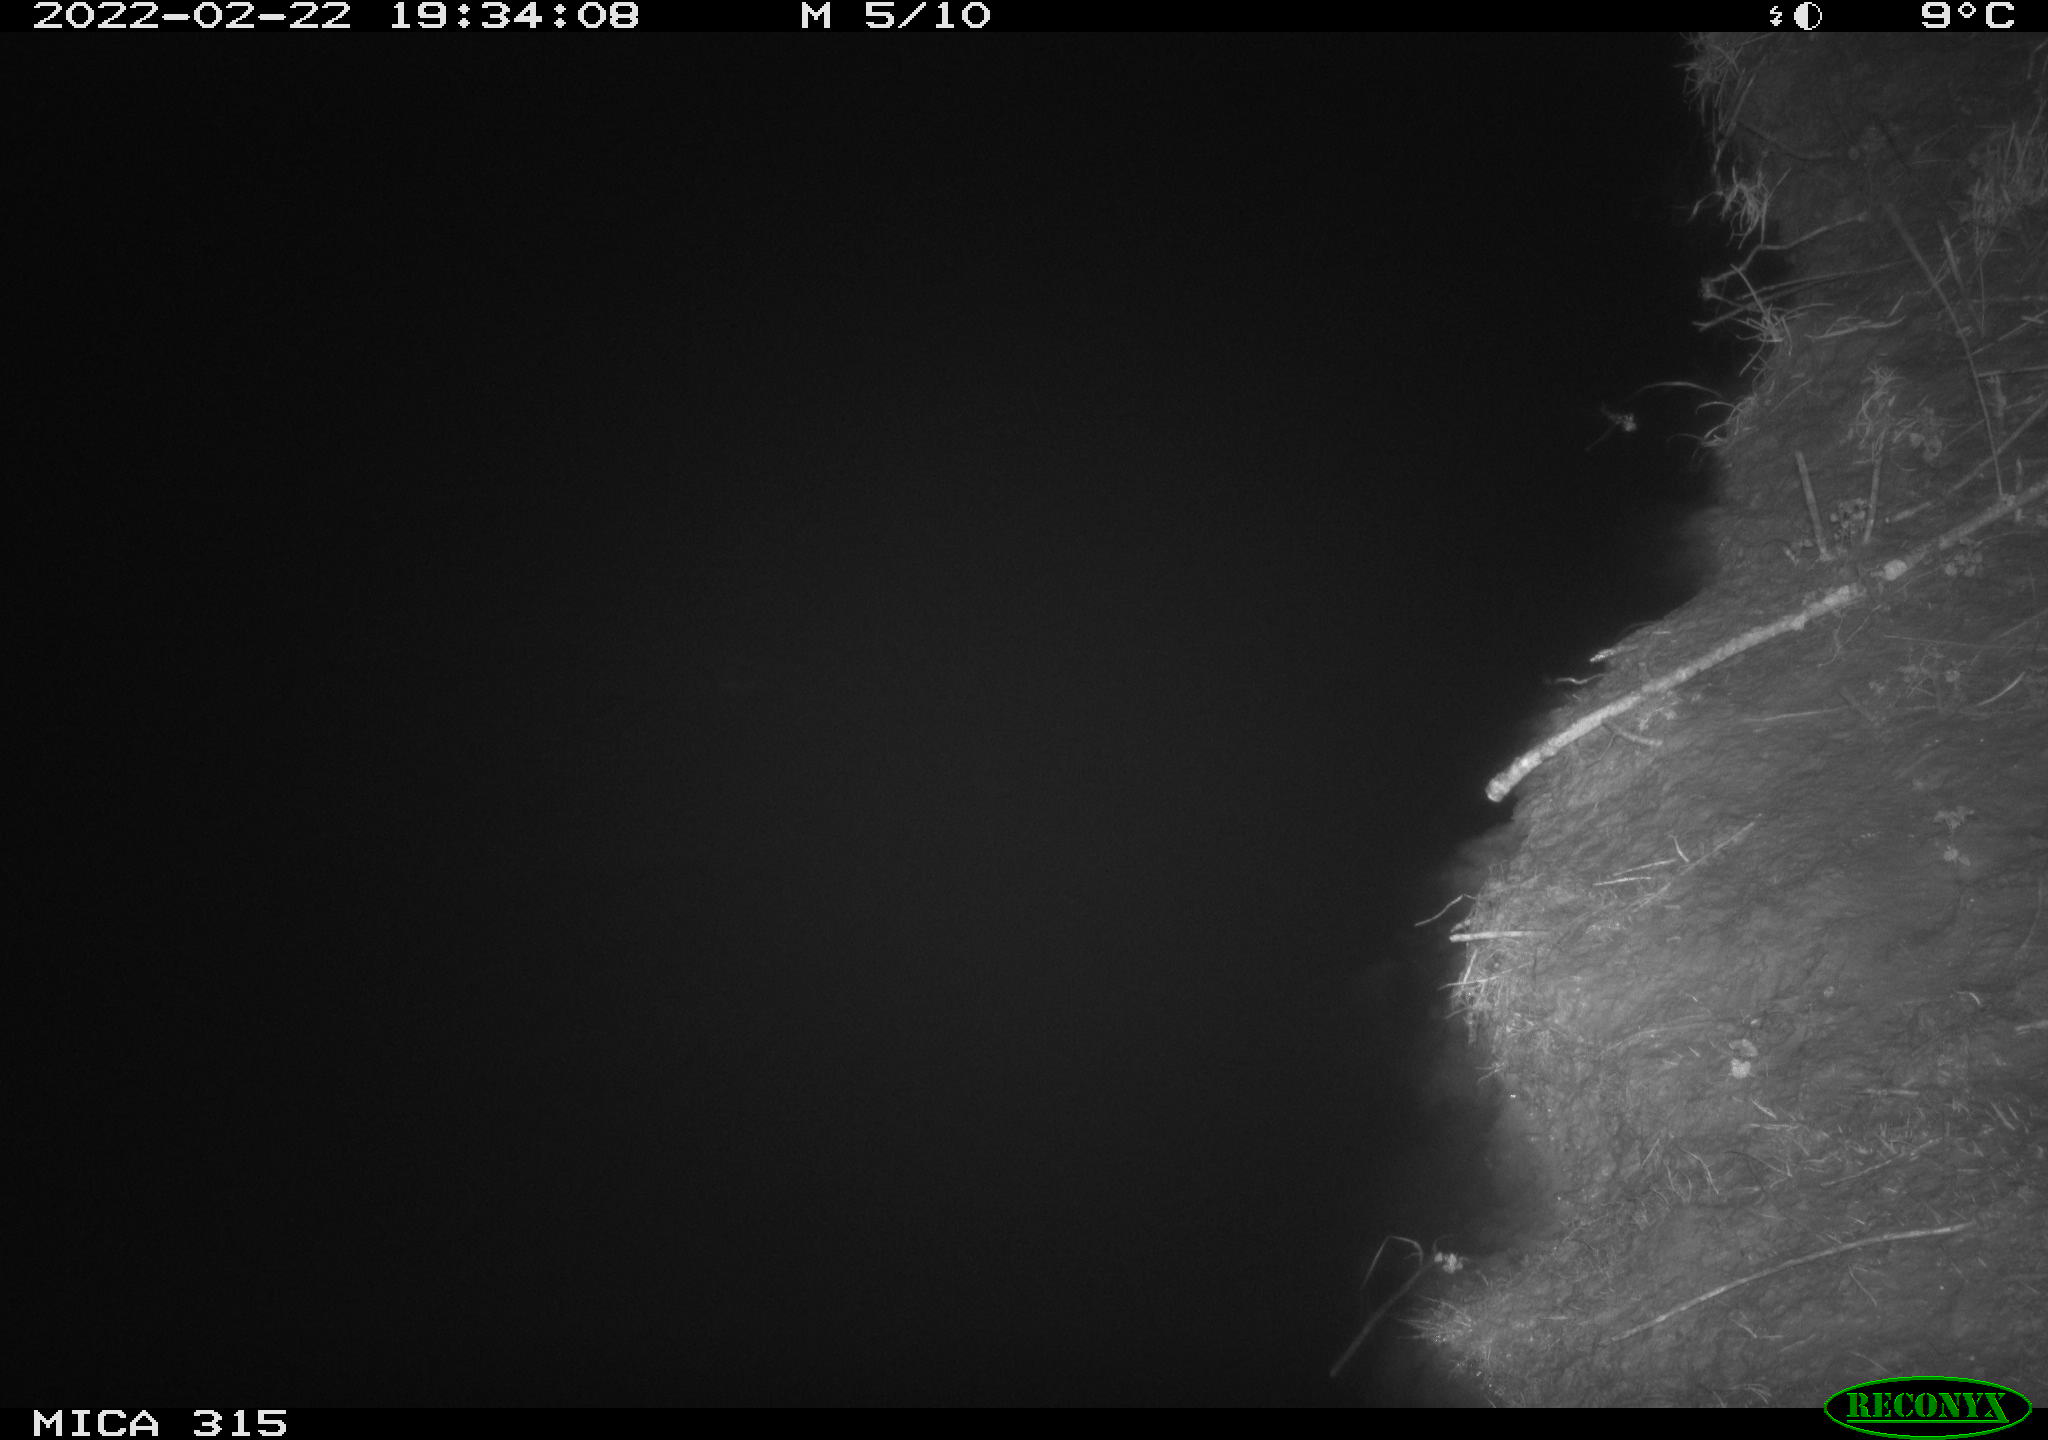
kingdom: Animalia
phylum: Chordata
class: Mammalia
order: Rodentia
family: Muridae
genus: Rattus
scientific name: Rattus norvegicus
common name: Brown rat
